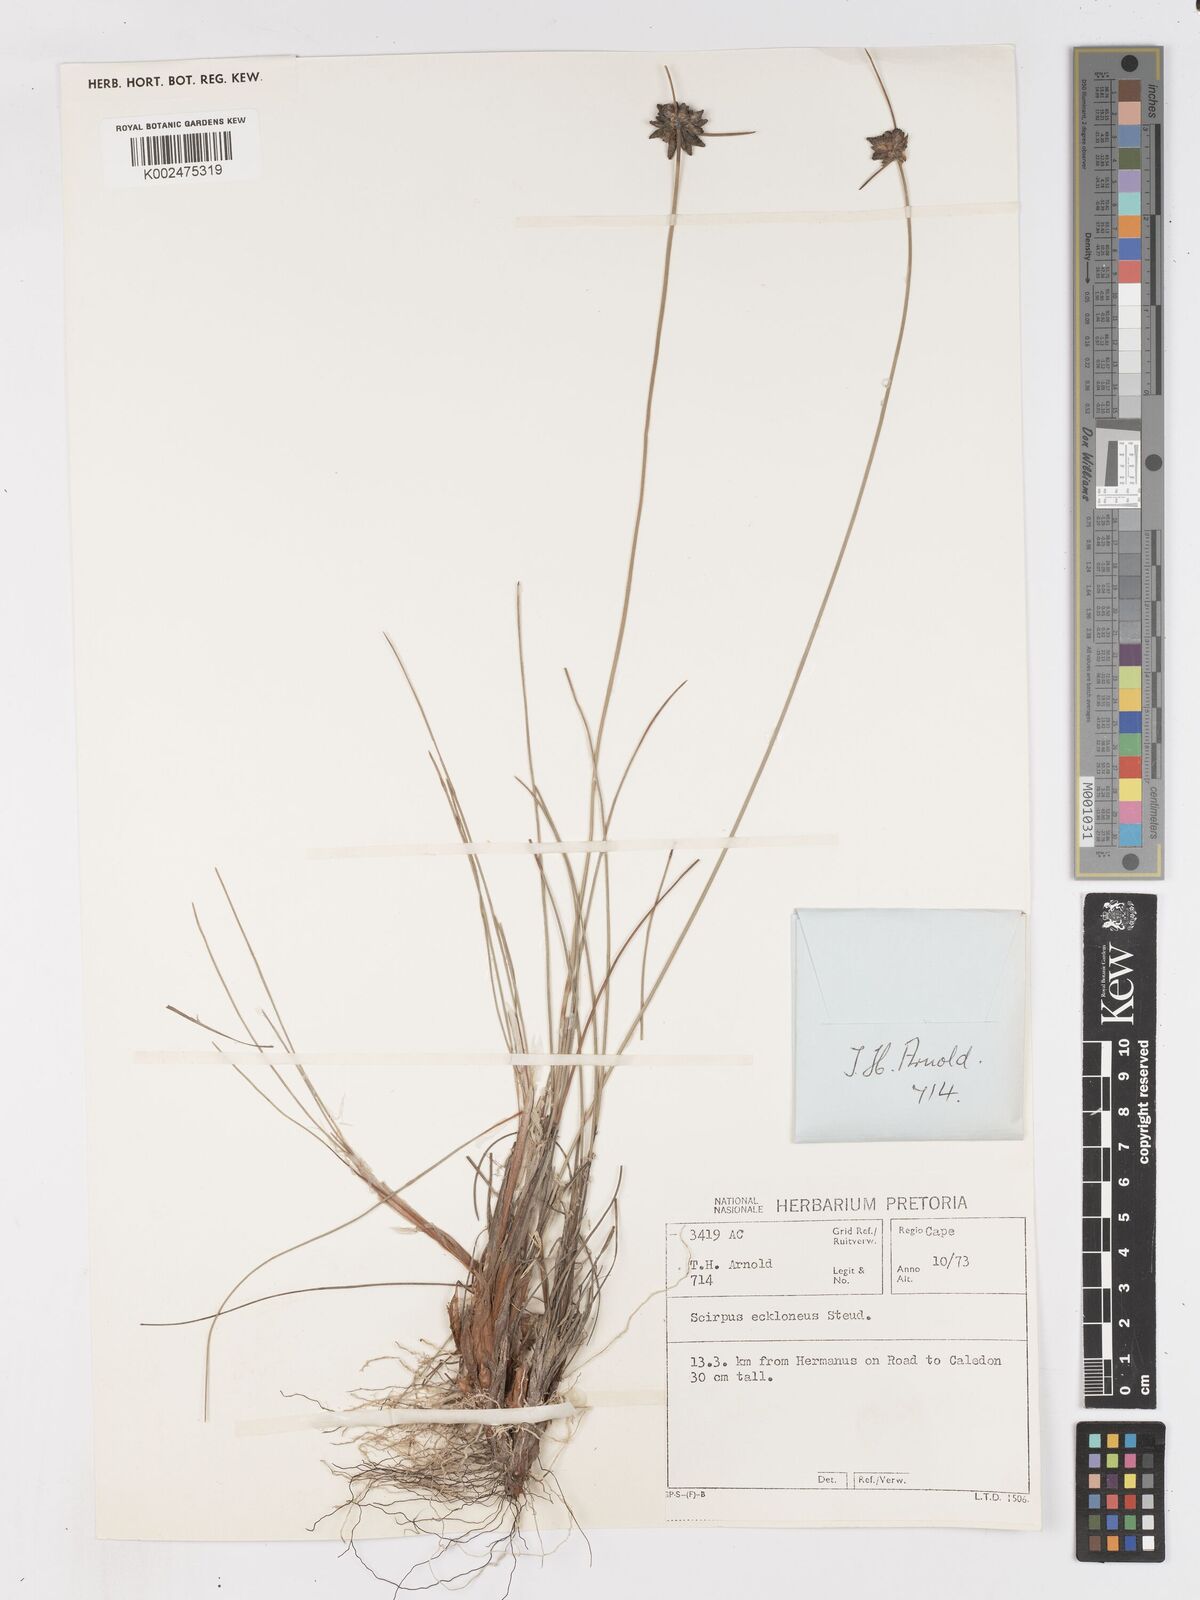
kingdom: Plantae
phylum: Tracheophyta
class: Liliopsida
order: Poales
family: Cyperaceae
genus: Ficinia
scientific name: Ficinia ecklonea
